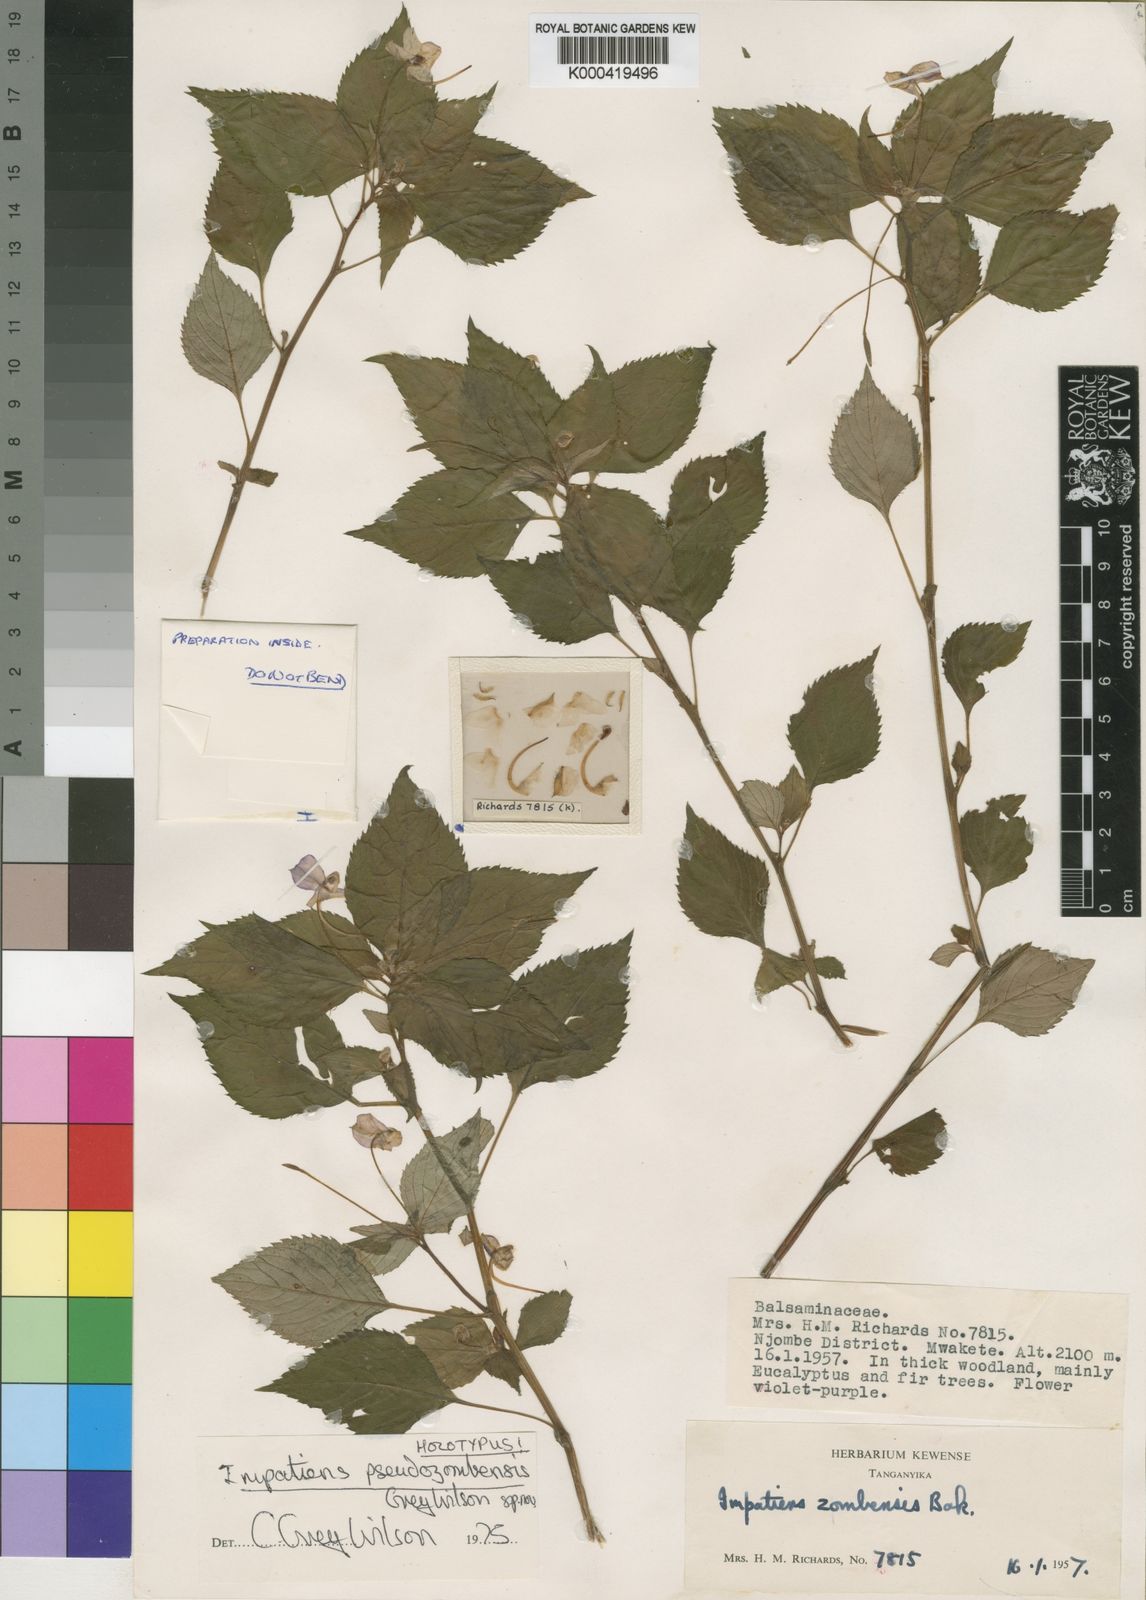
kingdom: Plantae
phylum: Tracheophyta
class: Magnoliopsida
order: Ericales
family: Balsaminaceae
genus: Impatiens
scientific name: Impatiens pseudozombensis
